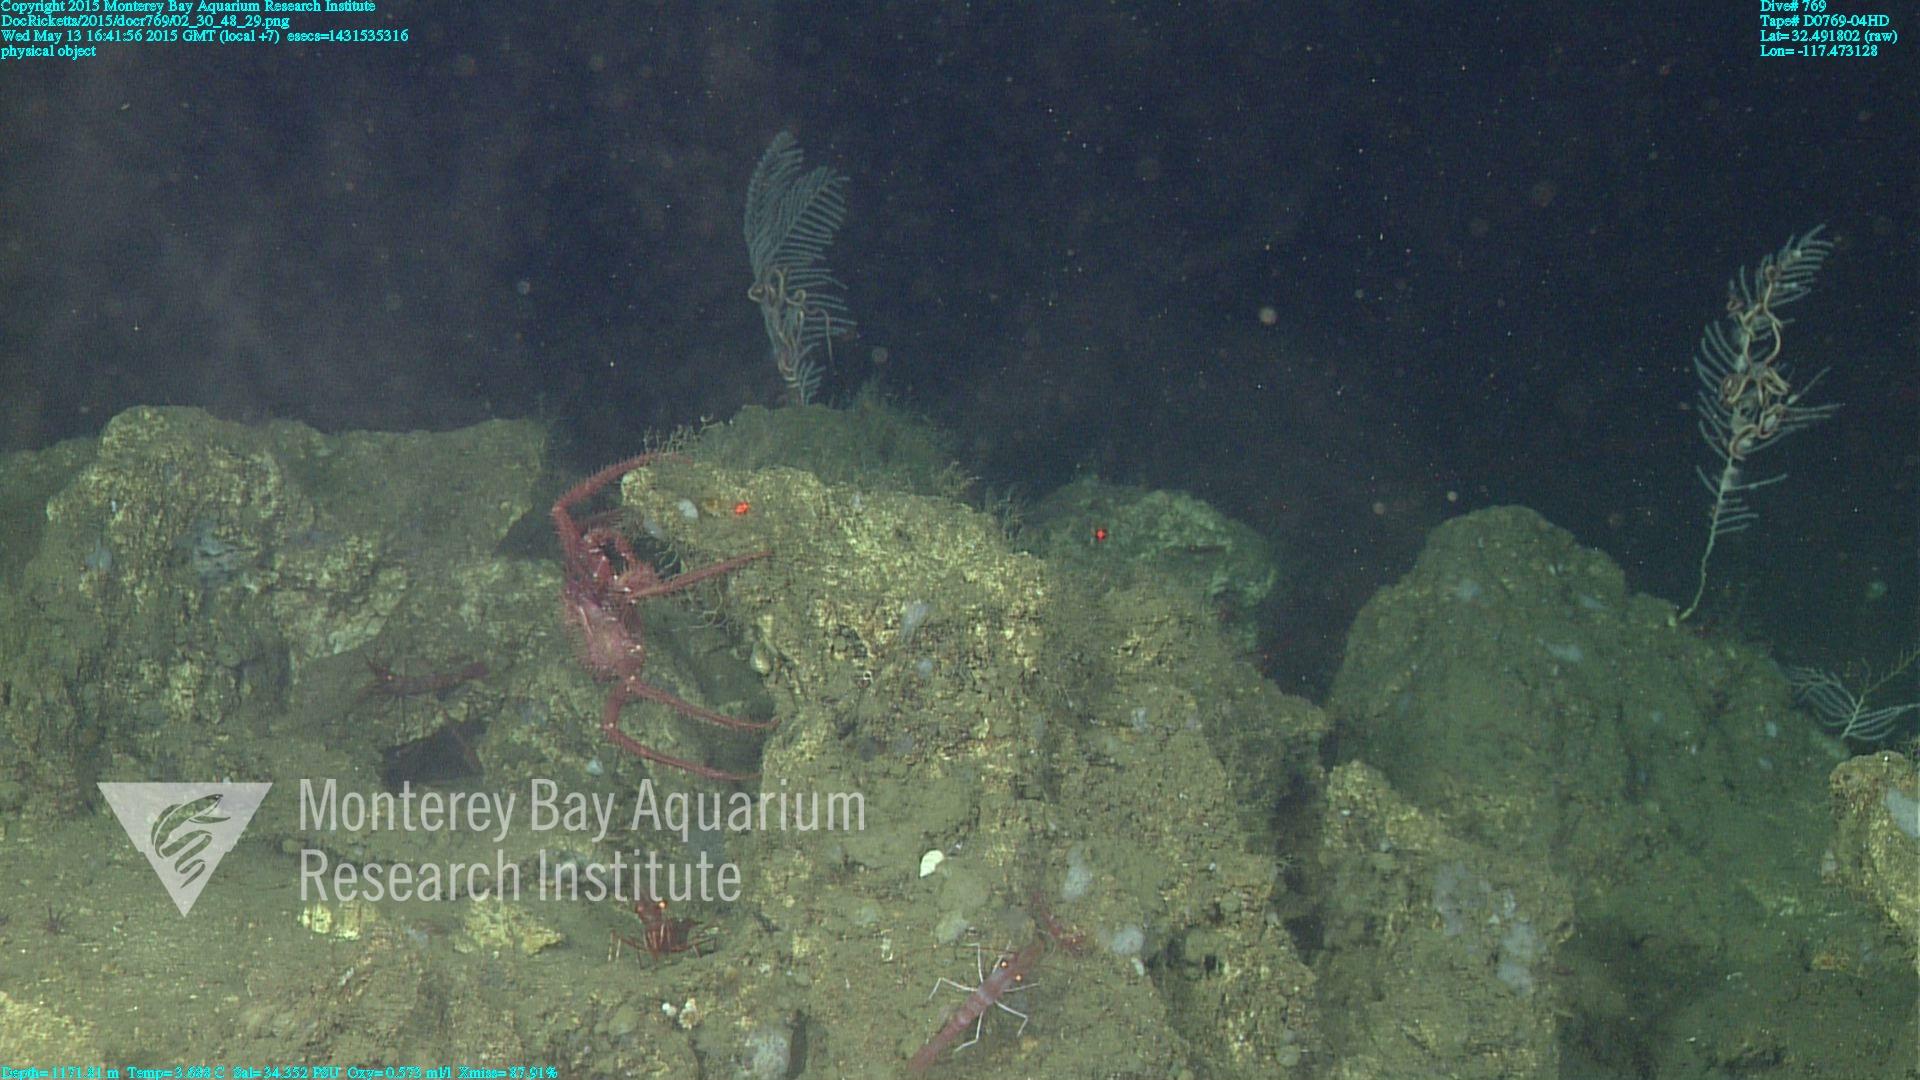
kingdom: Animalia
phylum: Cnidaria
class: Anthozoa
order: Scleralcyonacea
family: Primnoidae
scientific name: Primnoidae
